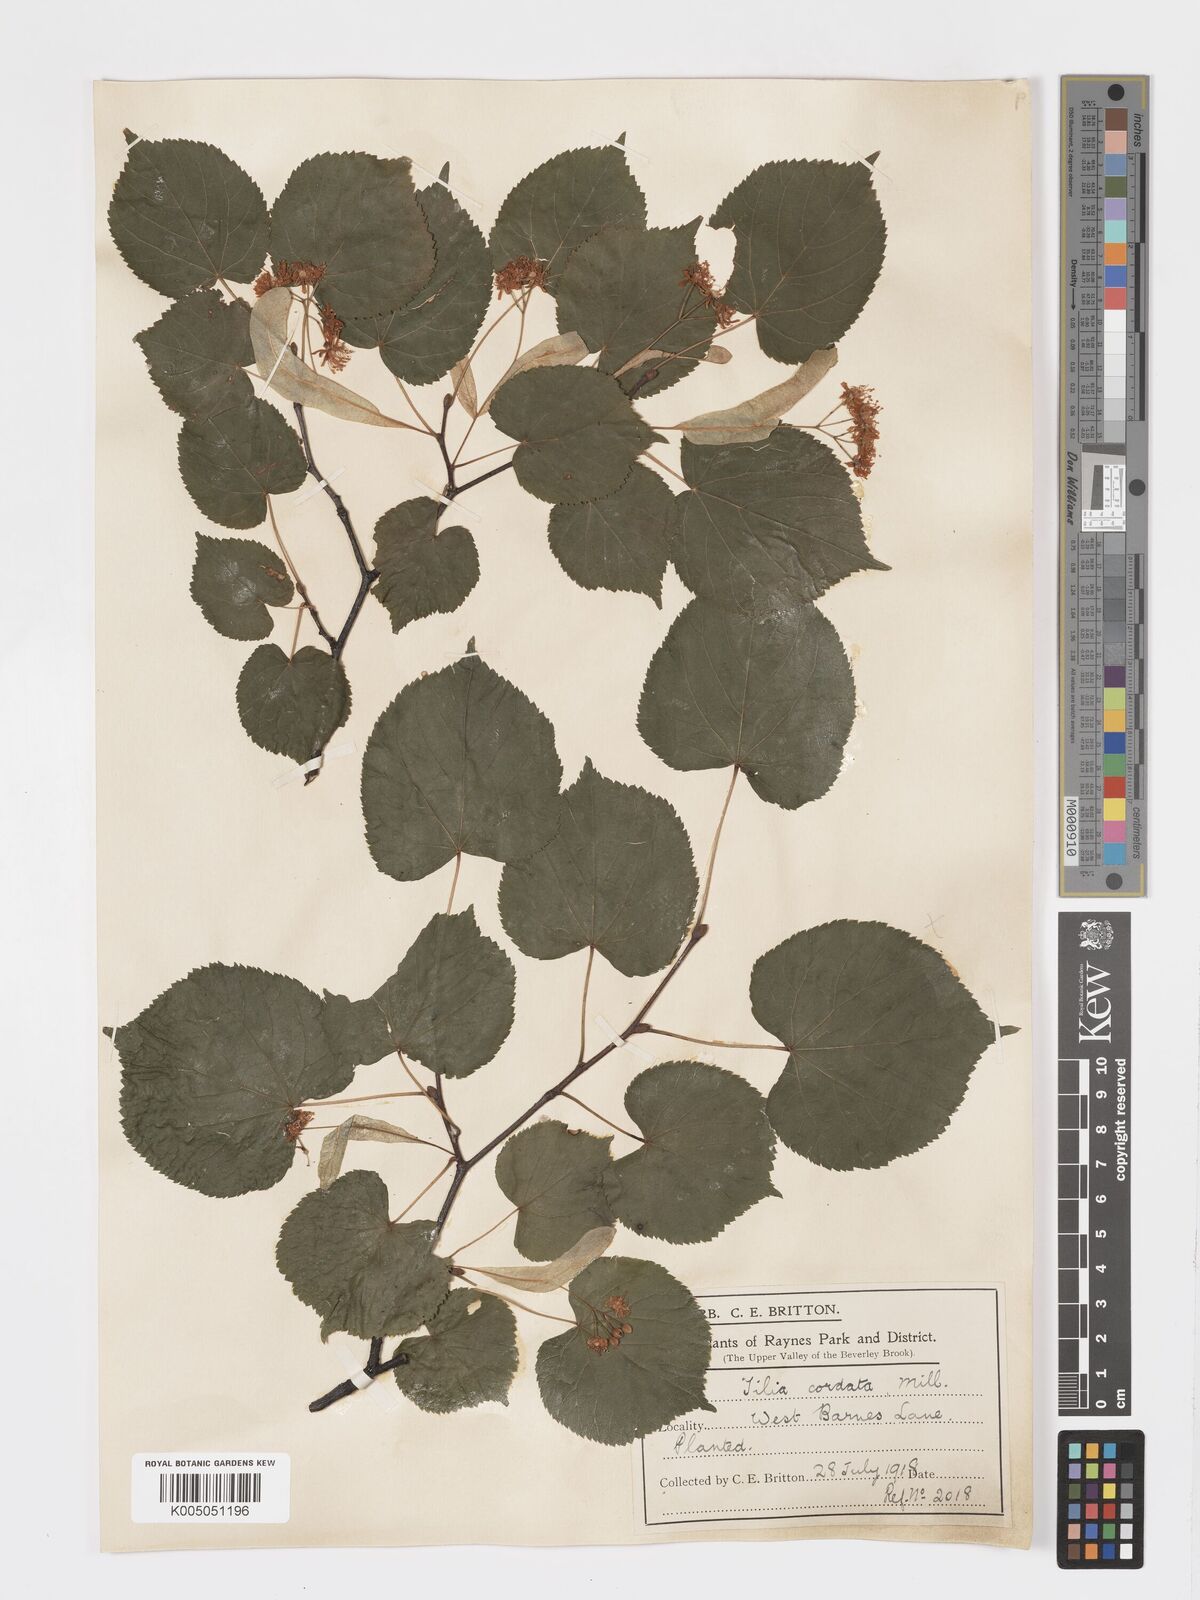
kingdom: Plantae
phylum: Tracheophyta
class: Magnoliopsida
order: Malvales
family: Malvaceae
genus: Tilia
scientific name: Tilia
